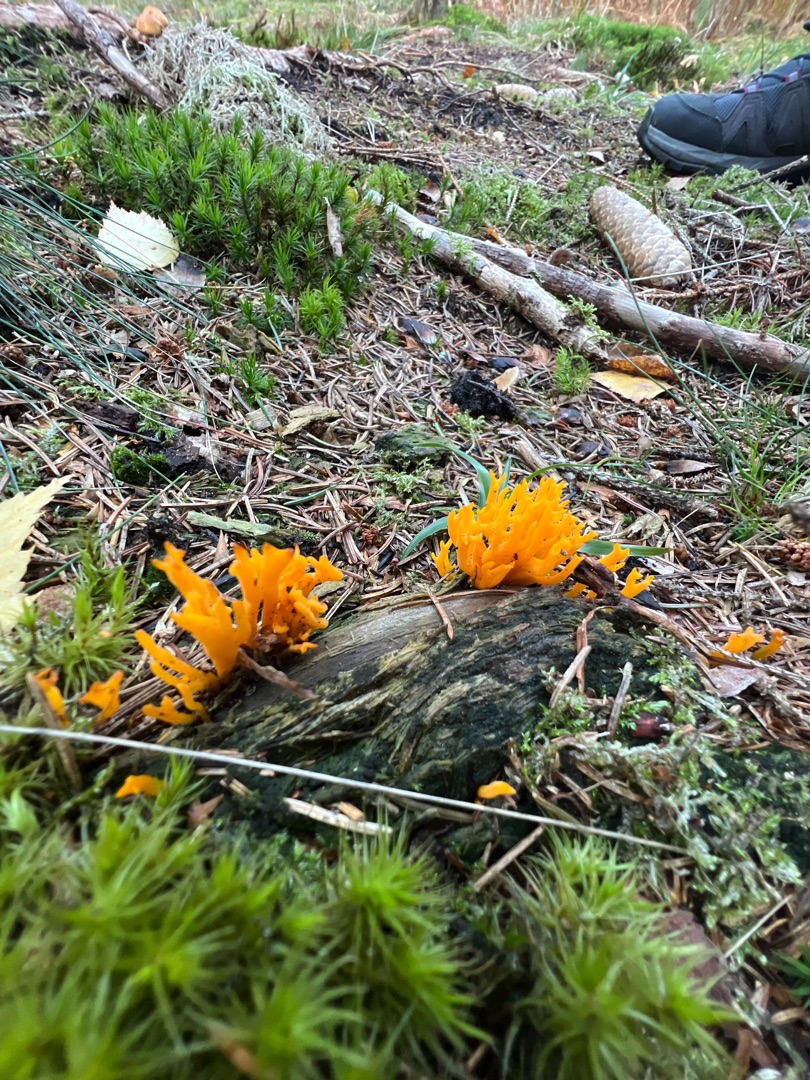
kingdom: Fungi
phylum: Basidiomycota
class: Dacrymycetes
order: Dacrymycetales
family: Dacrymycetaceae
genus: Calocera
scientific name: Calocera viscosa
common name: Almindelig guldgaffel
